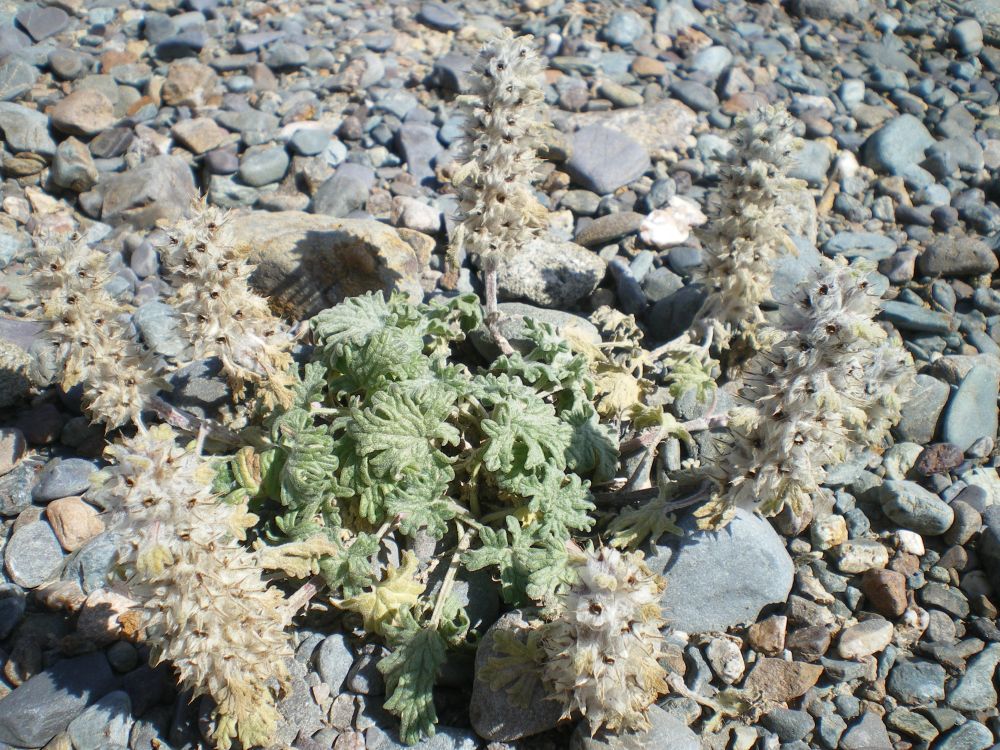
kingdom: Plantae
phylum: Tracheophyta
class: Magnoliopsida
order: Lamiales
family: Lamiaceae
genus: Panzerina
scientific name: Panzerina canescens
